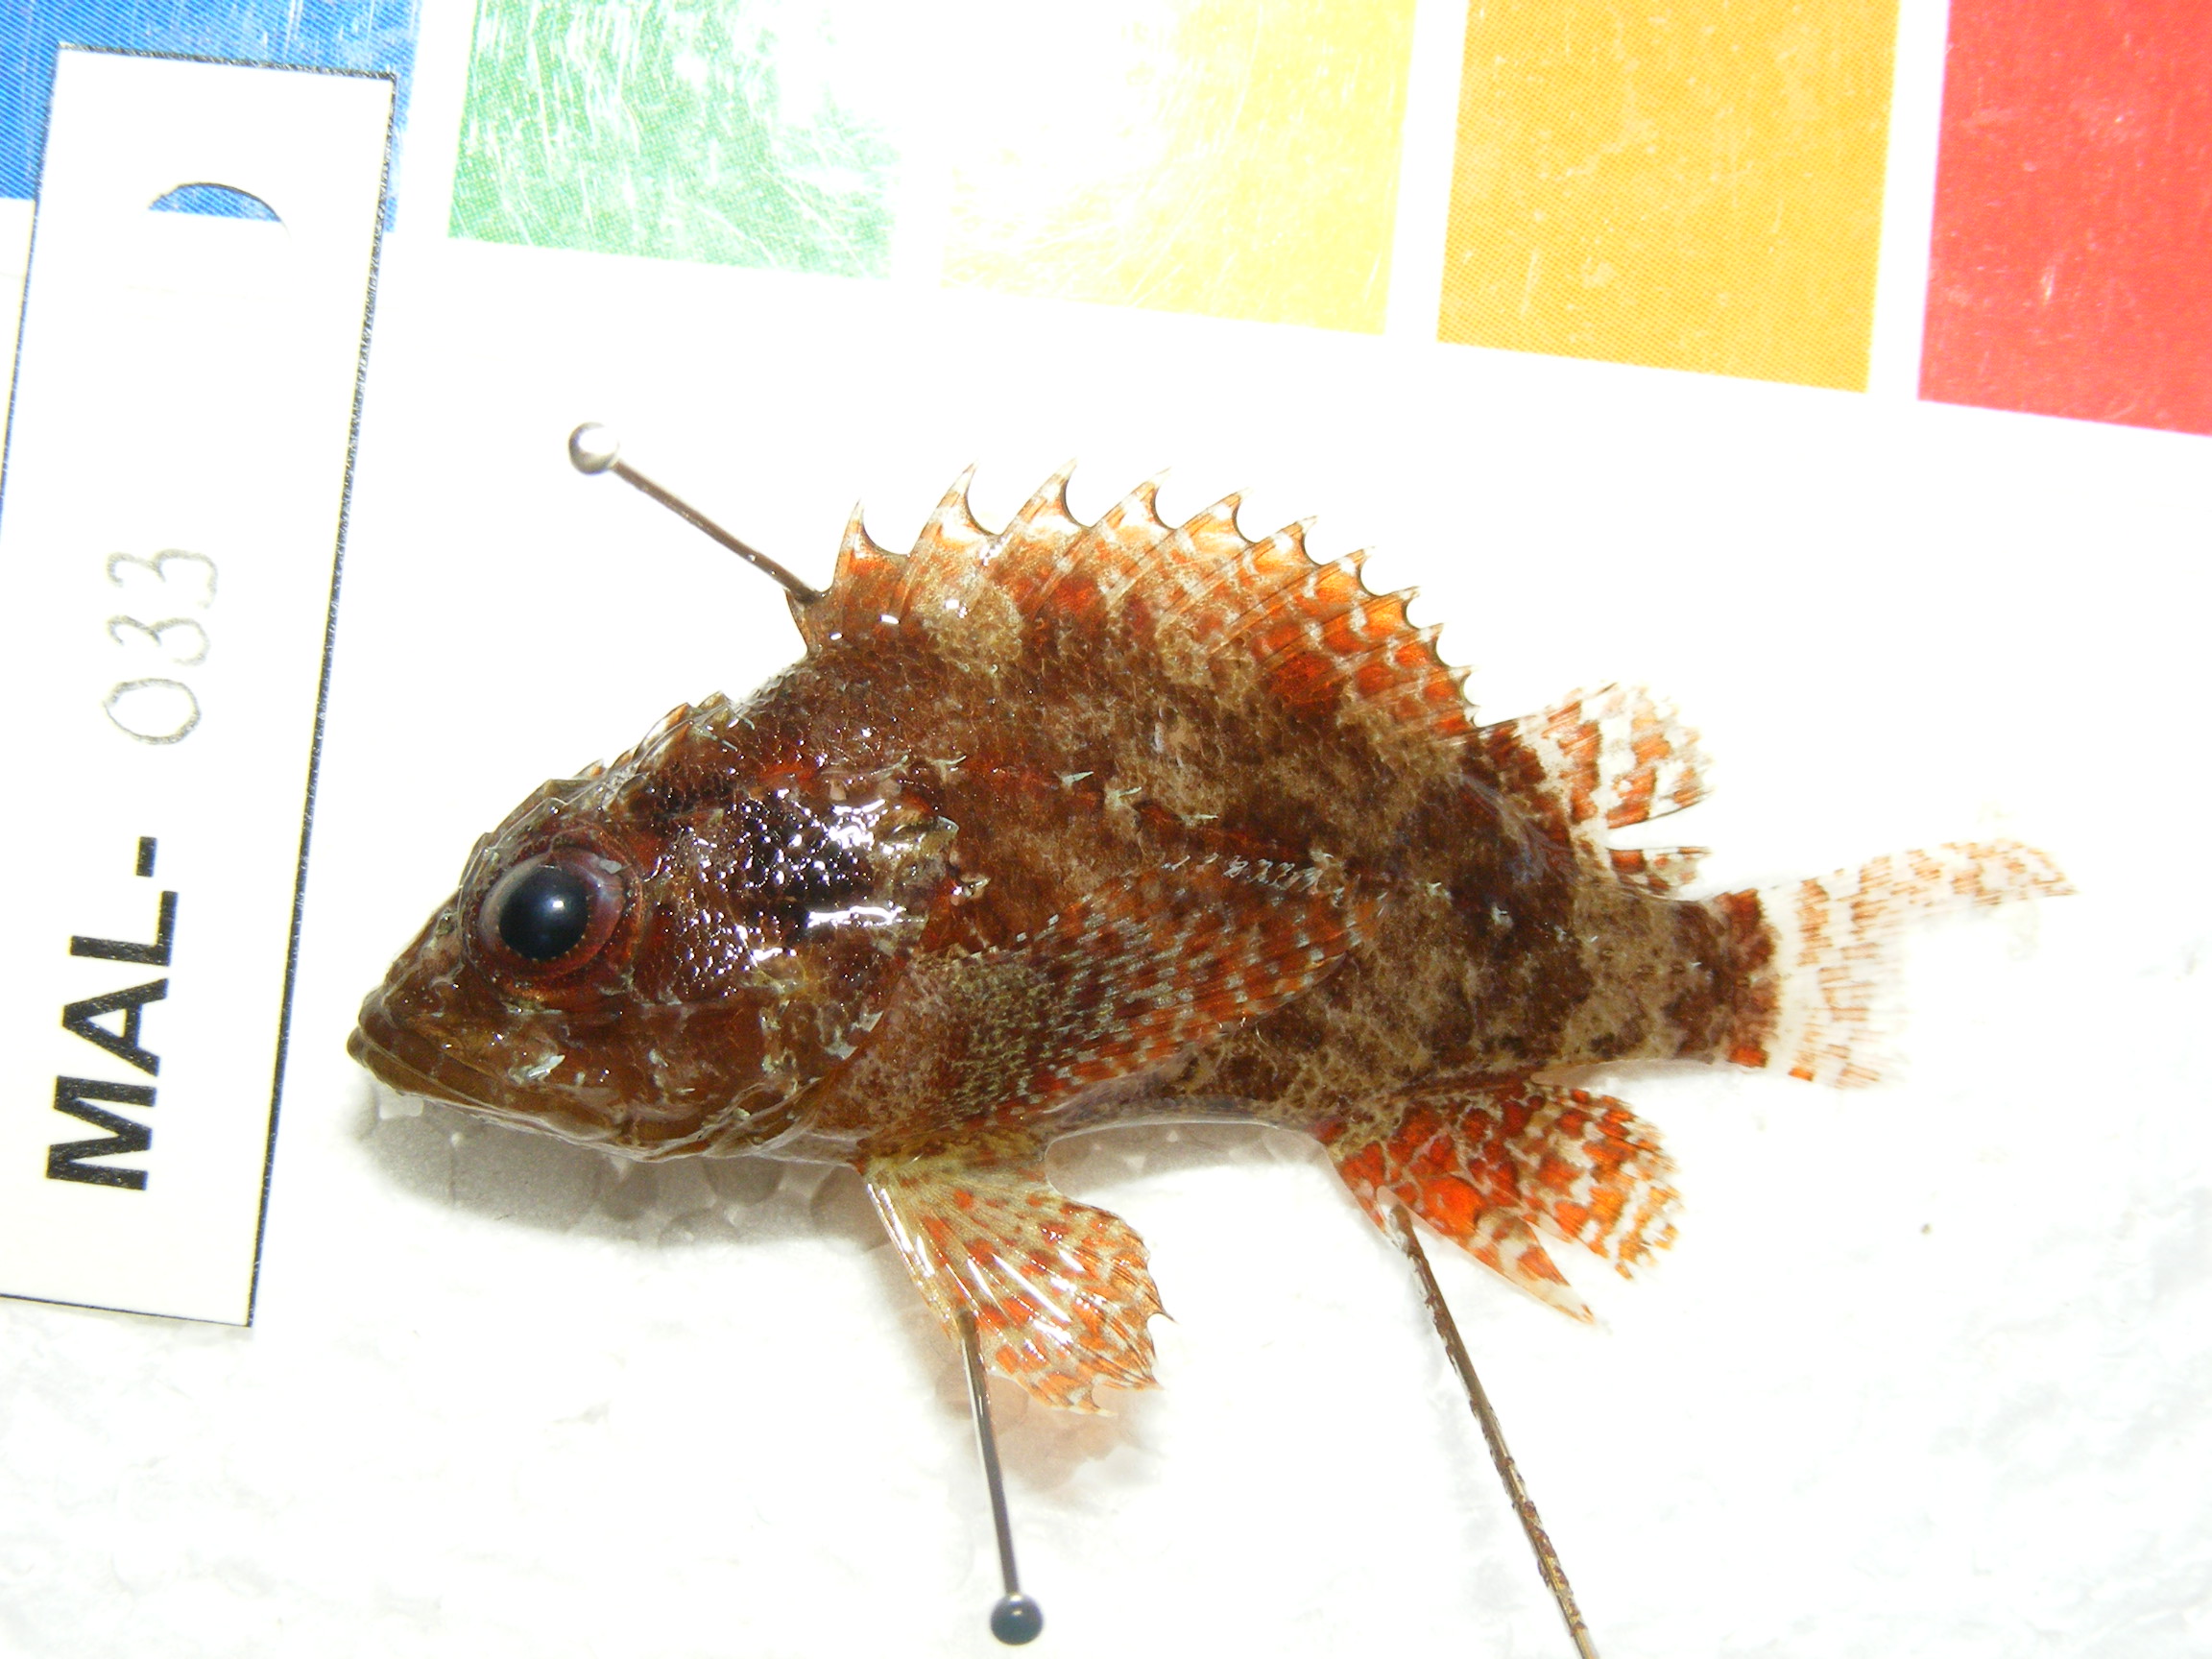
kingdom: Animalia
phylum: Chordata
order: Scorpaeniformes
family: Scorpaenidae
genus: Scorpaenodes
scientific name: Scorpaenodes kelloggi
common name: Dwarf scorpionfish
